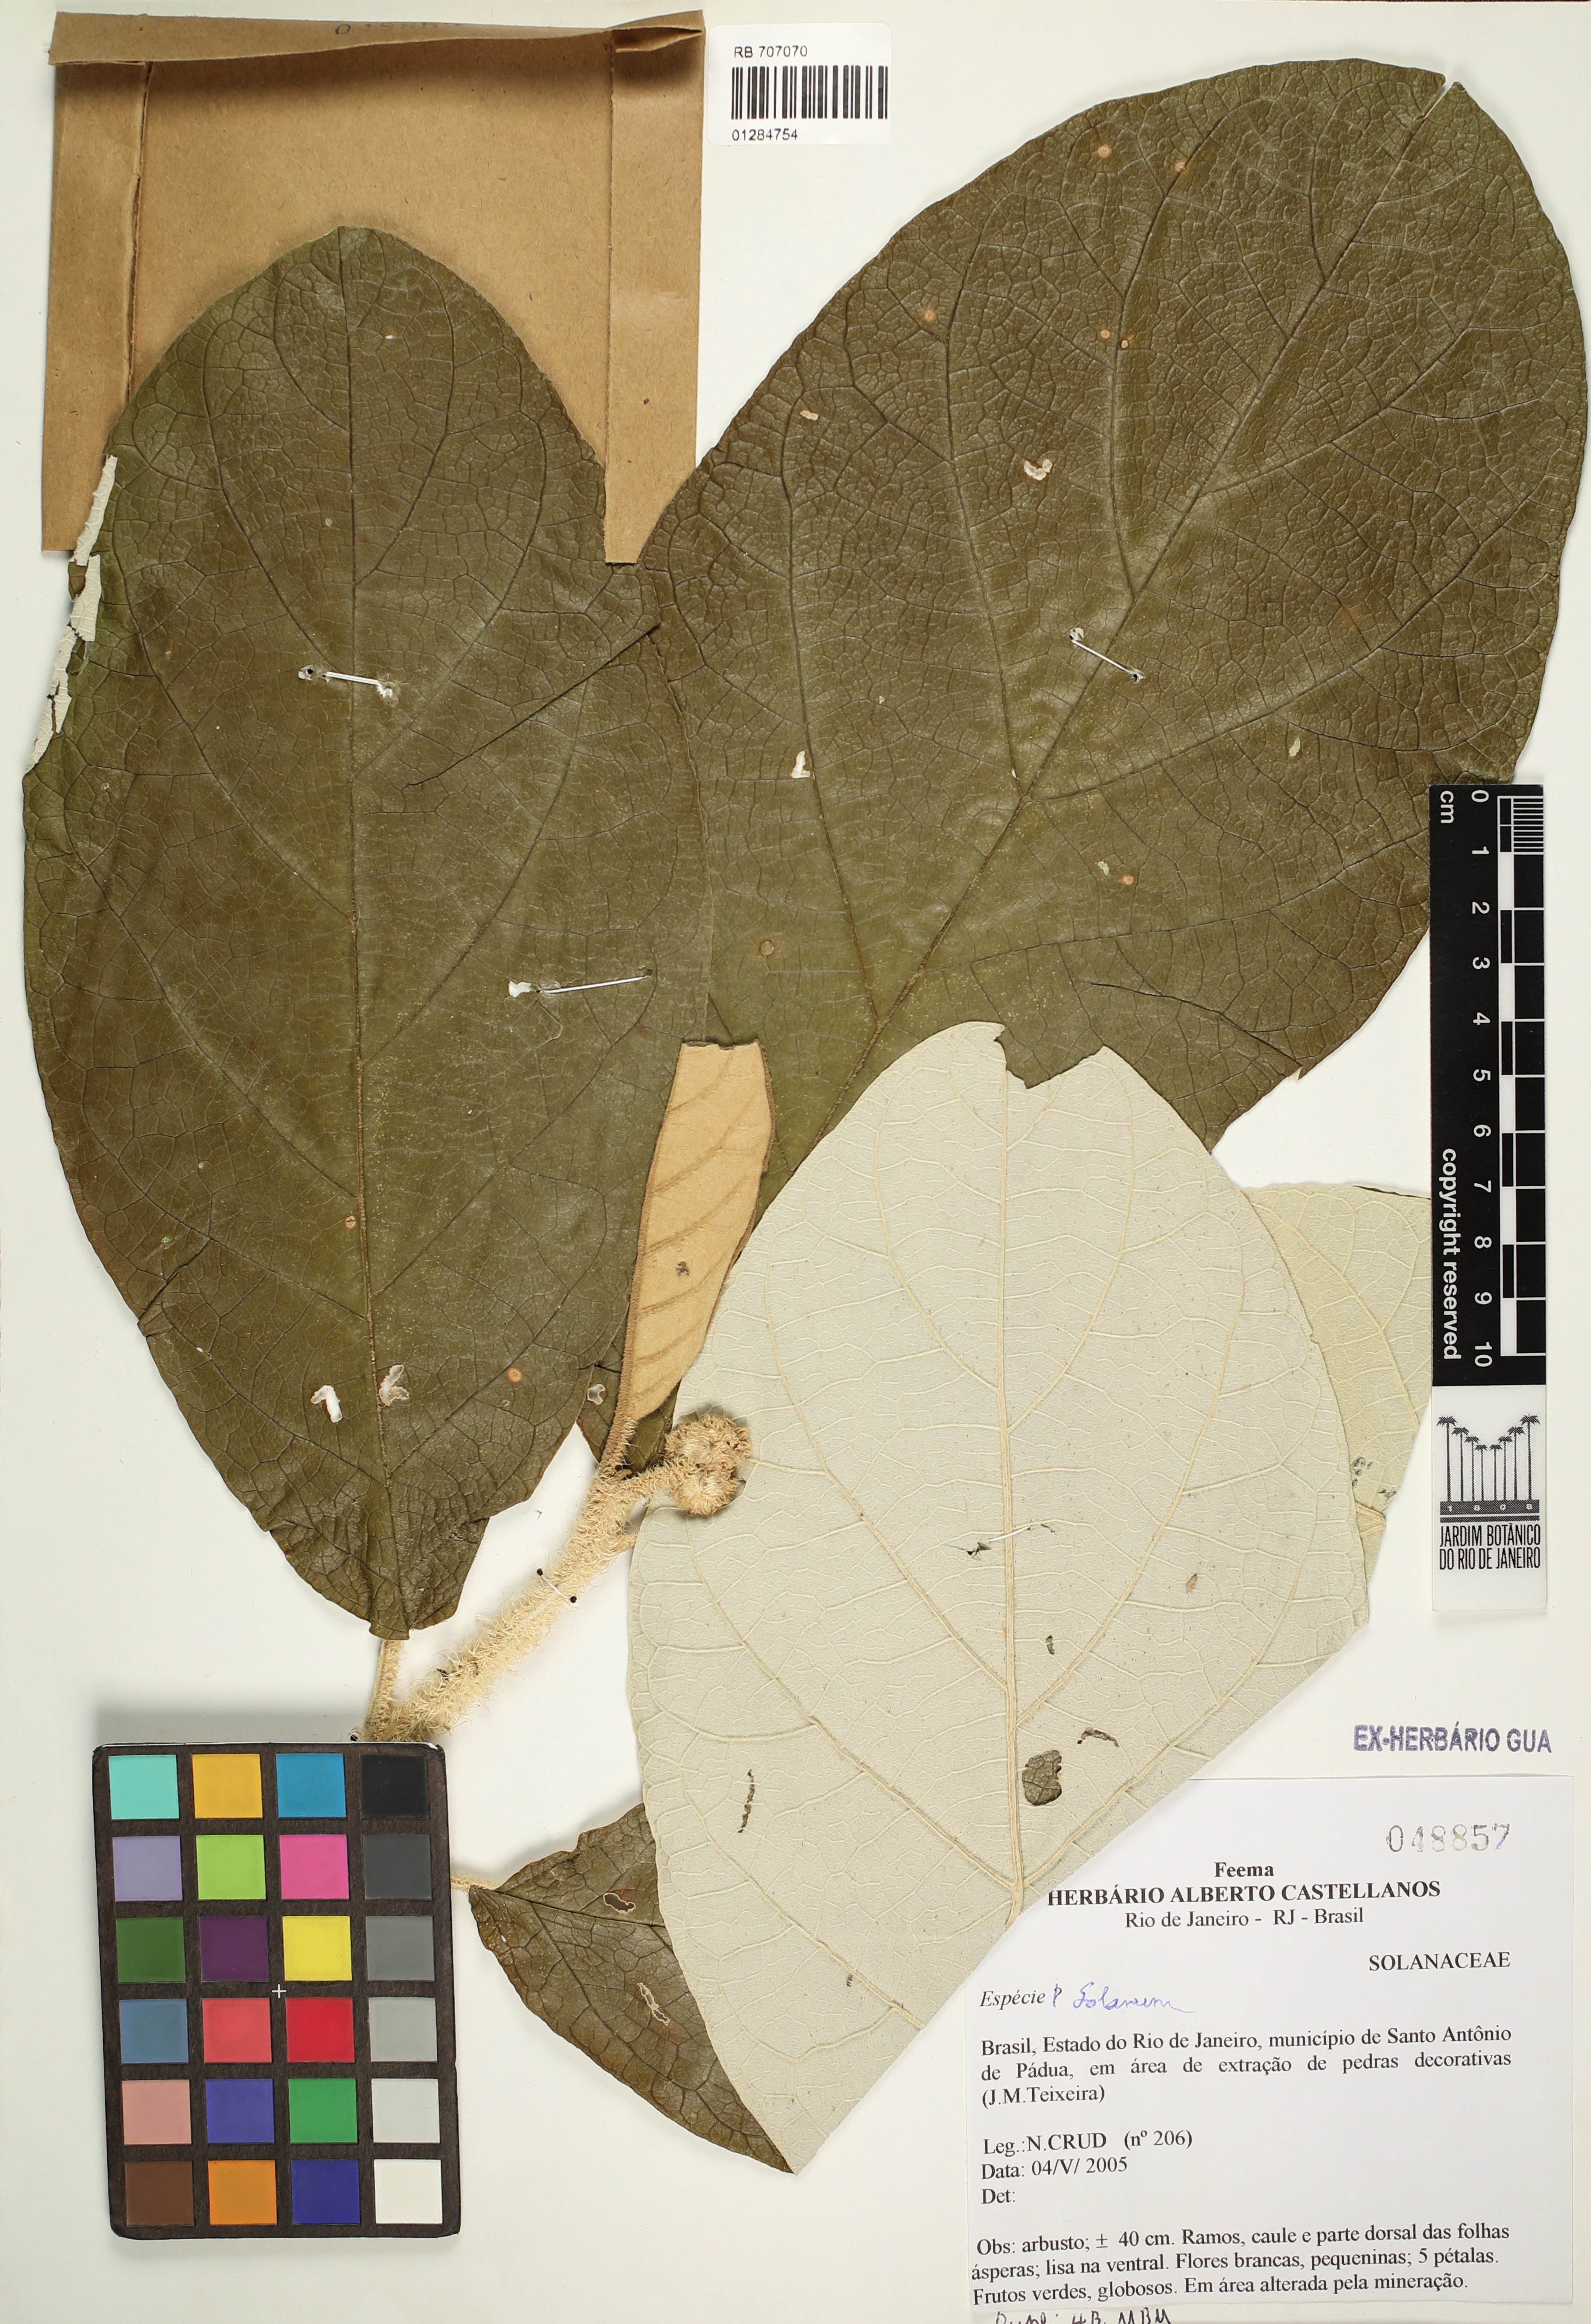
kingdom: Plantae
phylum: Tracheophyta
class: Magnoliopsida
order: Solanales
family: Solanaceae
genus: Solanum
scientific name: Solanum
